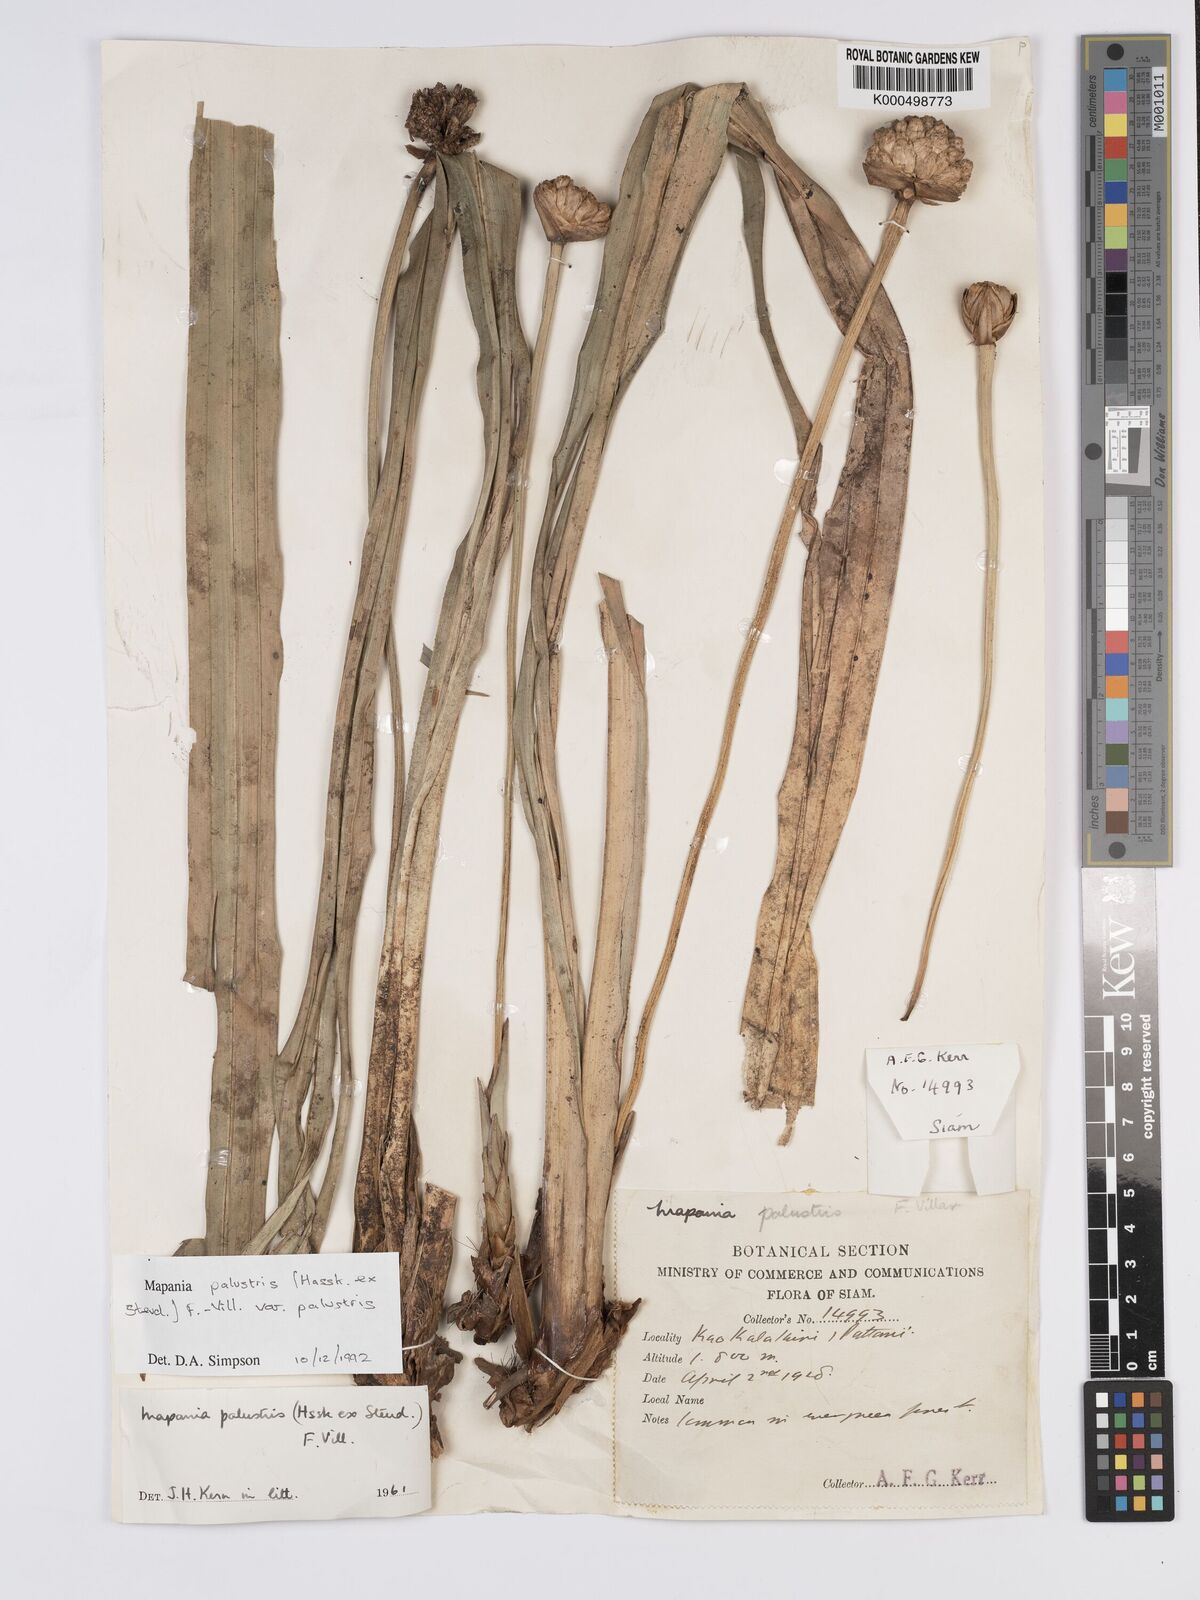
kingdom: Plantae
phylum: Tracheophyta
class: Liliopsida
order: Poales
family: Cyperaceae
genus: Mapania
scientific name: Mapania palustris
